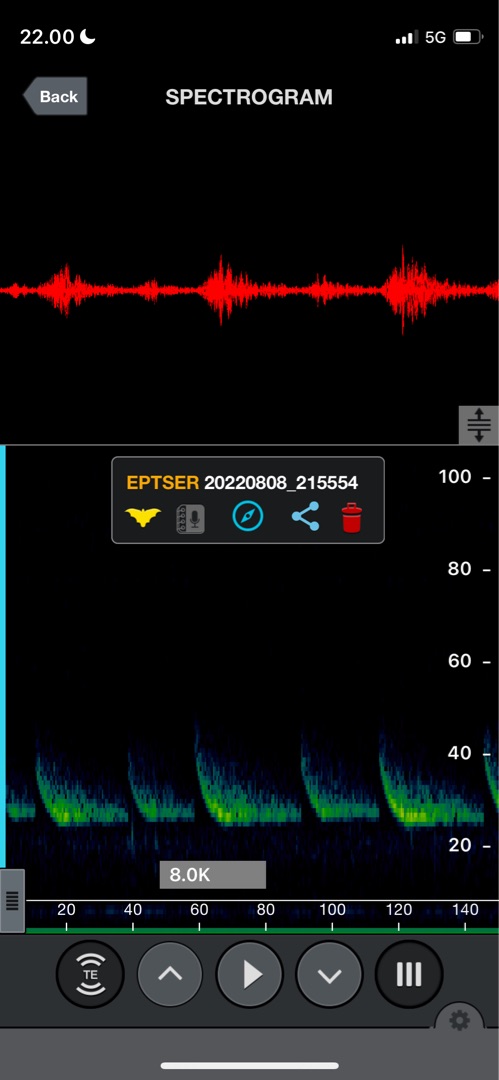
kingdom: Animalia
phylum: Chordata
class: Mammalia
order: Chiroptera
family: Vespertilionidae
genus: Eptesicus
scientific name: Eptesicus serotinus
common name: Sydflagermus
